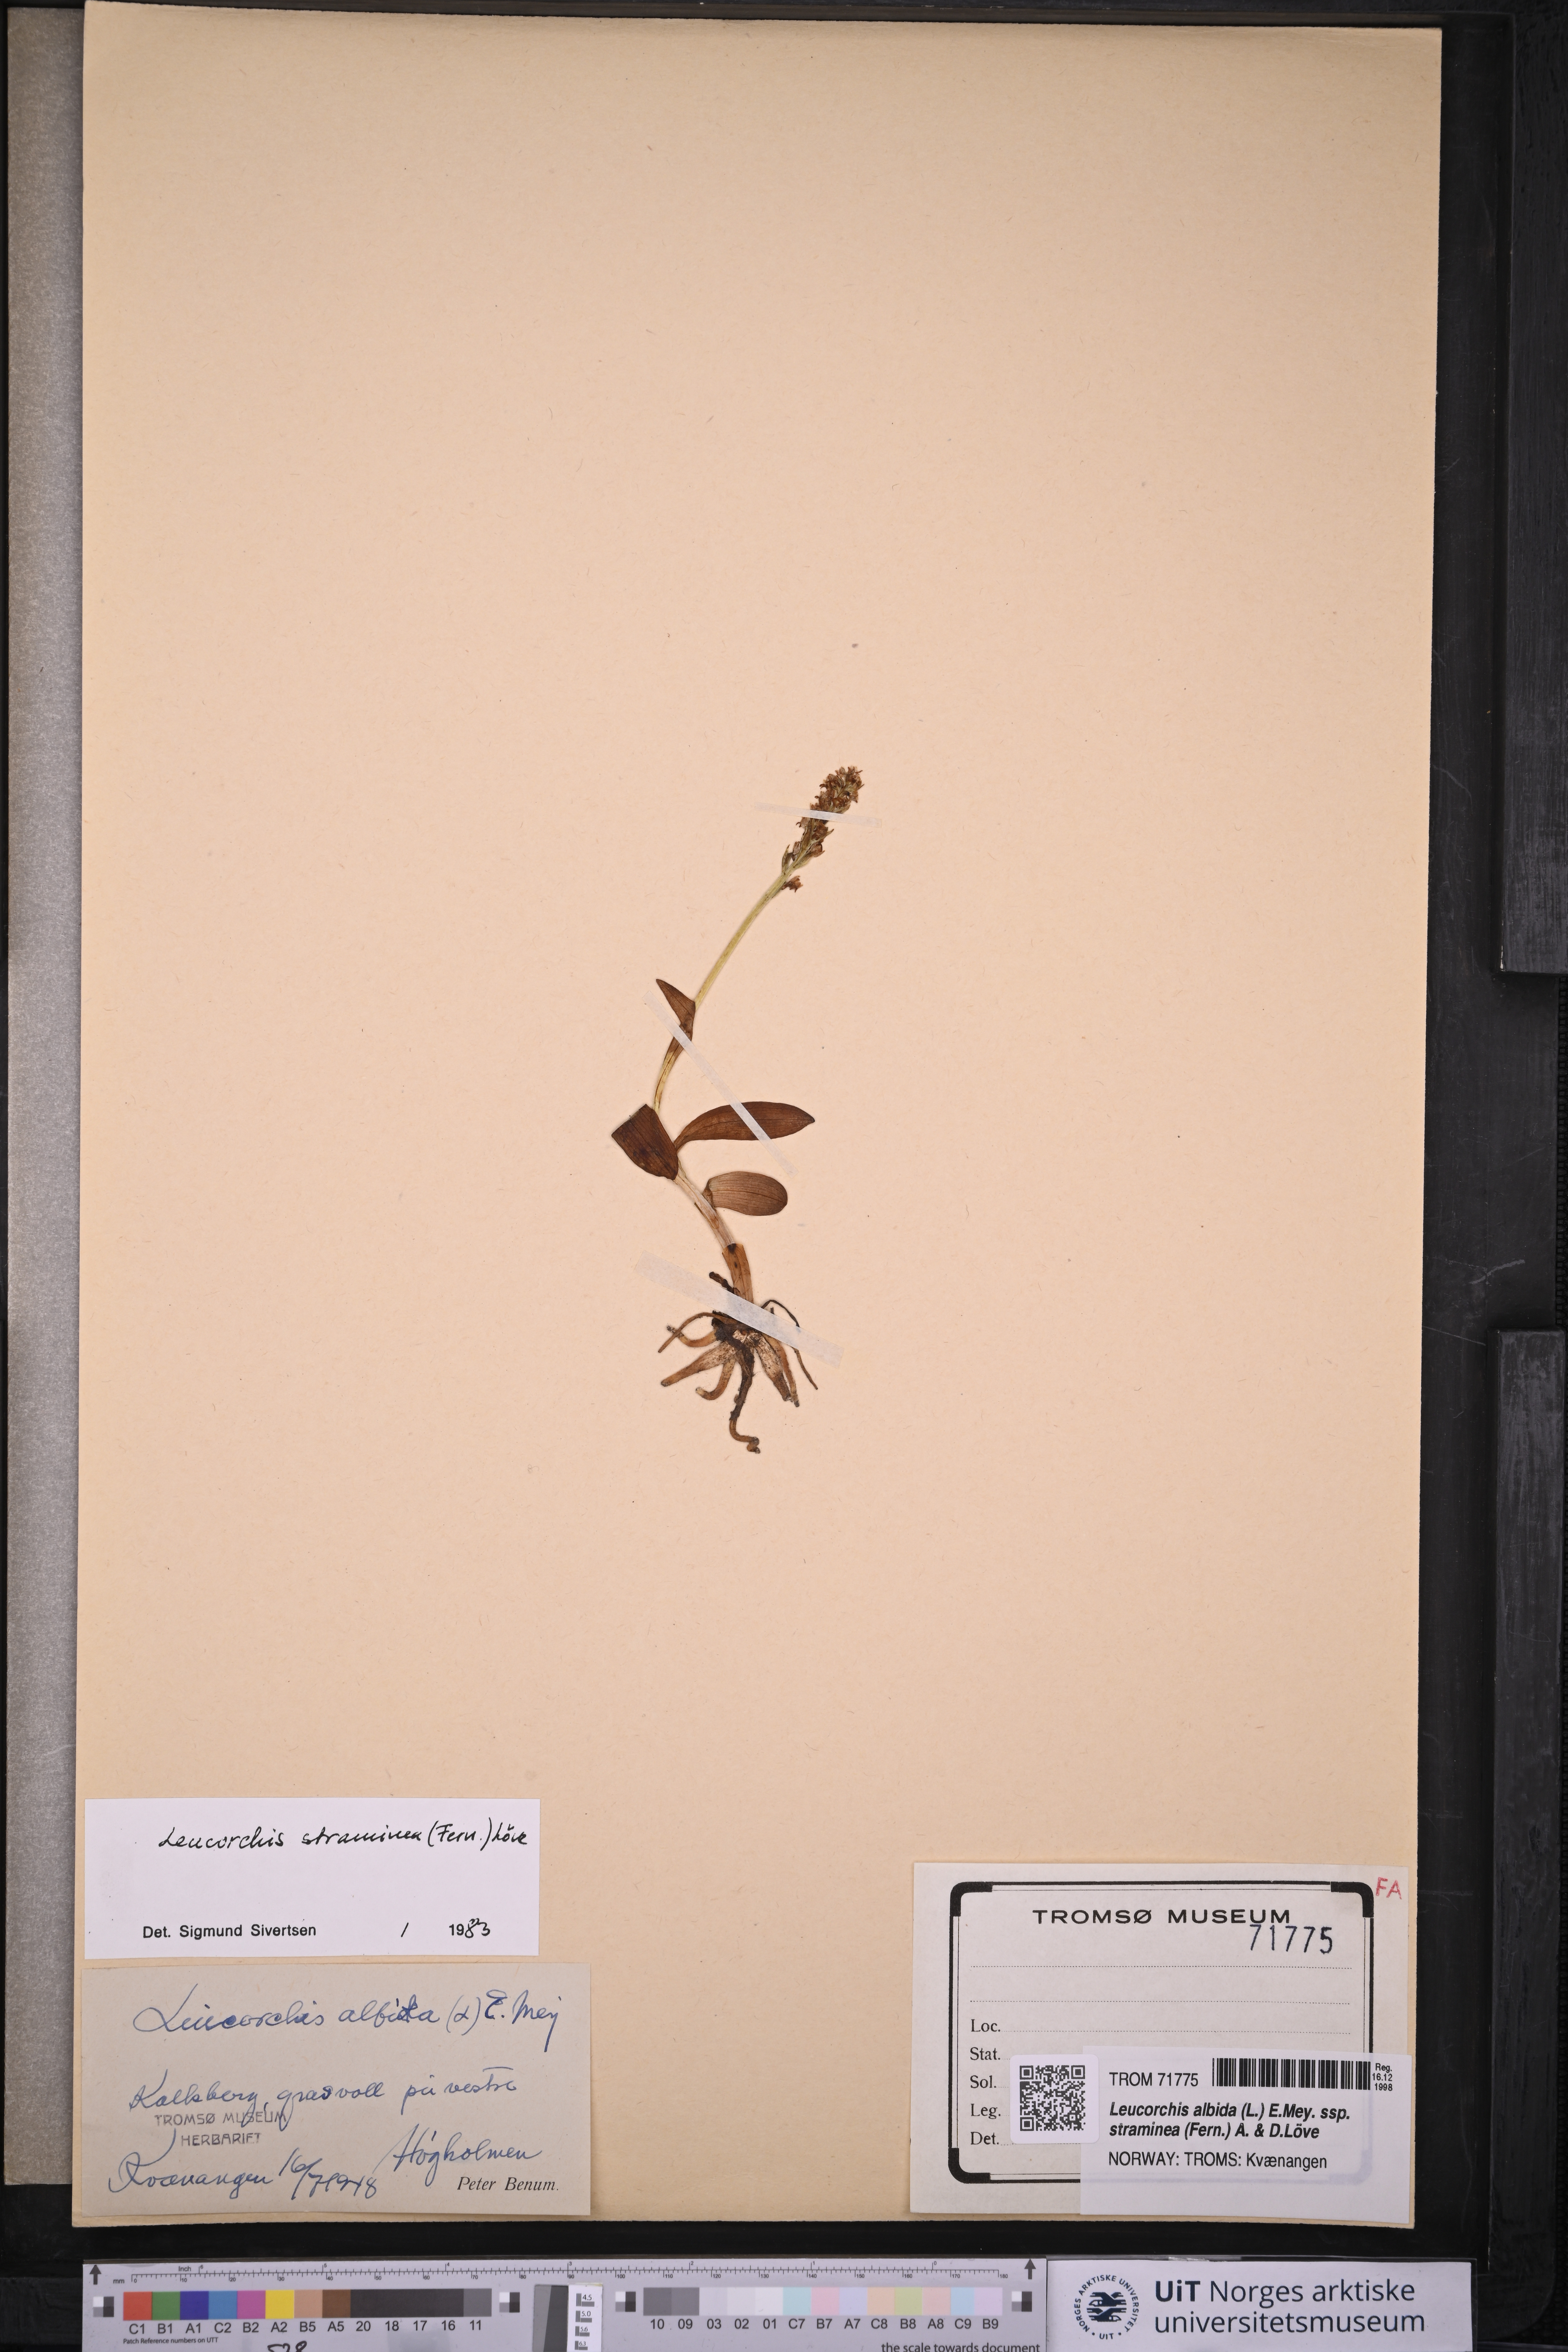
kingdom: Plantae
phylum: Tracheophyta
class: Liliopsida
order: Asparagales
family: Orchidaceae
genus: Pseudorchis
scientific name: Pseudorchis straminea
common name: Vanilla-scented bog orchid
